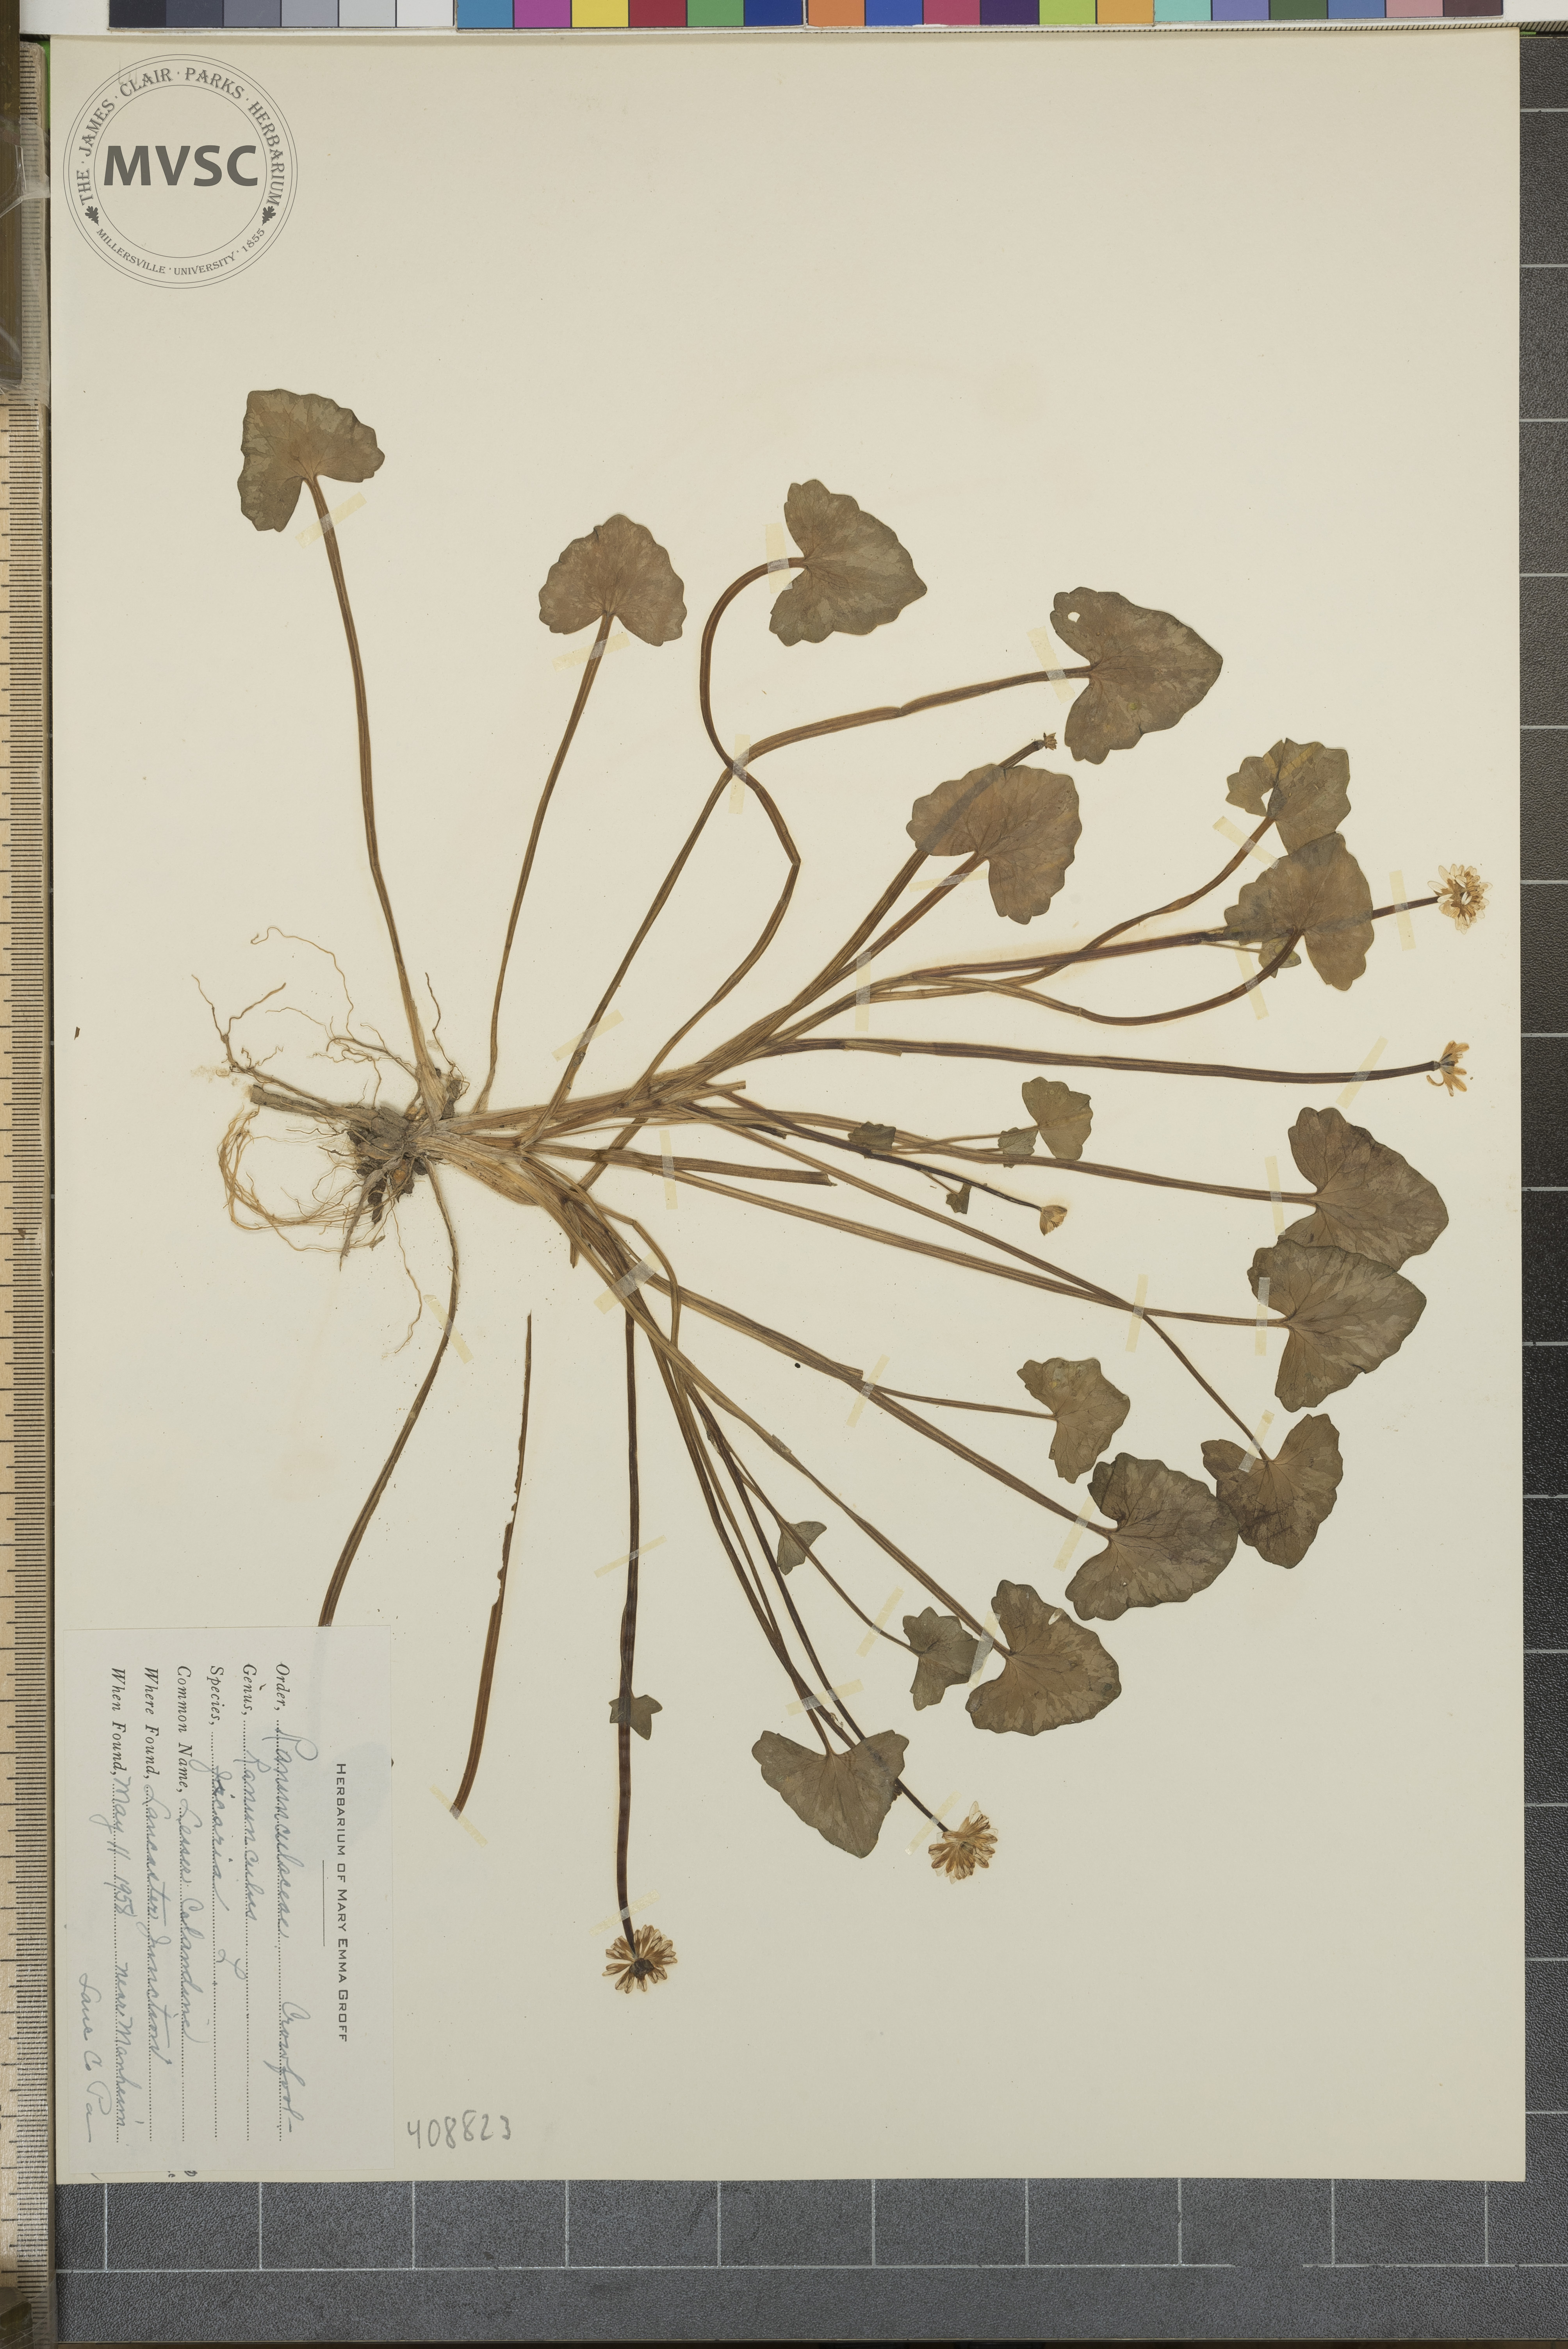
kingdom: Plantae
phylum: Tracheophyta
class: Magnoliopsida
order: Ranunculales
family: Ranunculaceae
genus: Ranunculus
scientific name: Ranunculus ficaria
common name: lesser celandine
